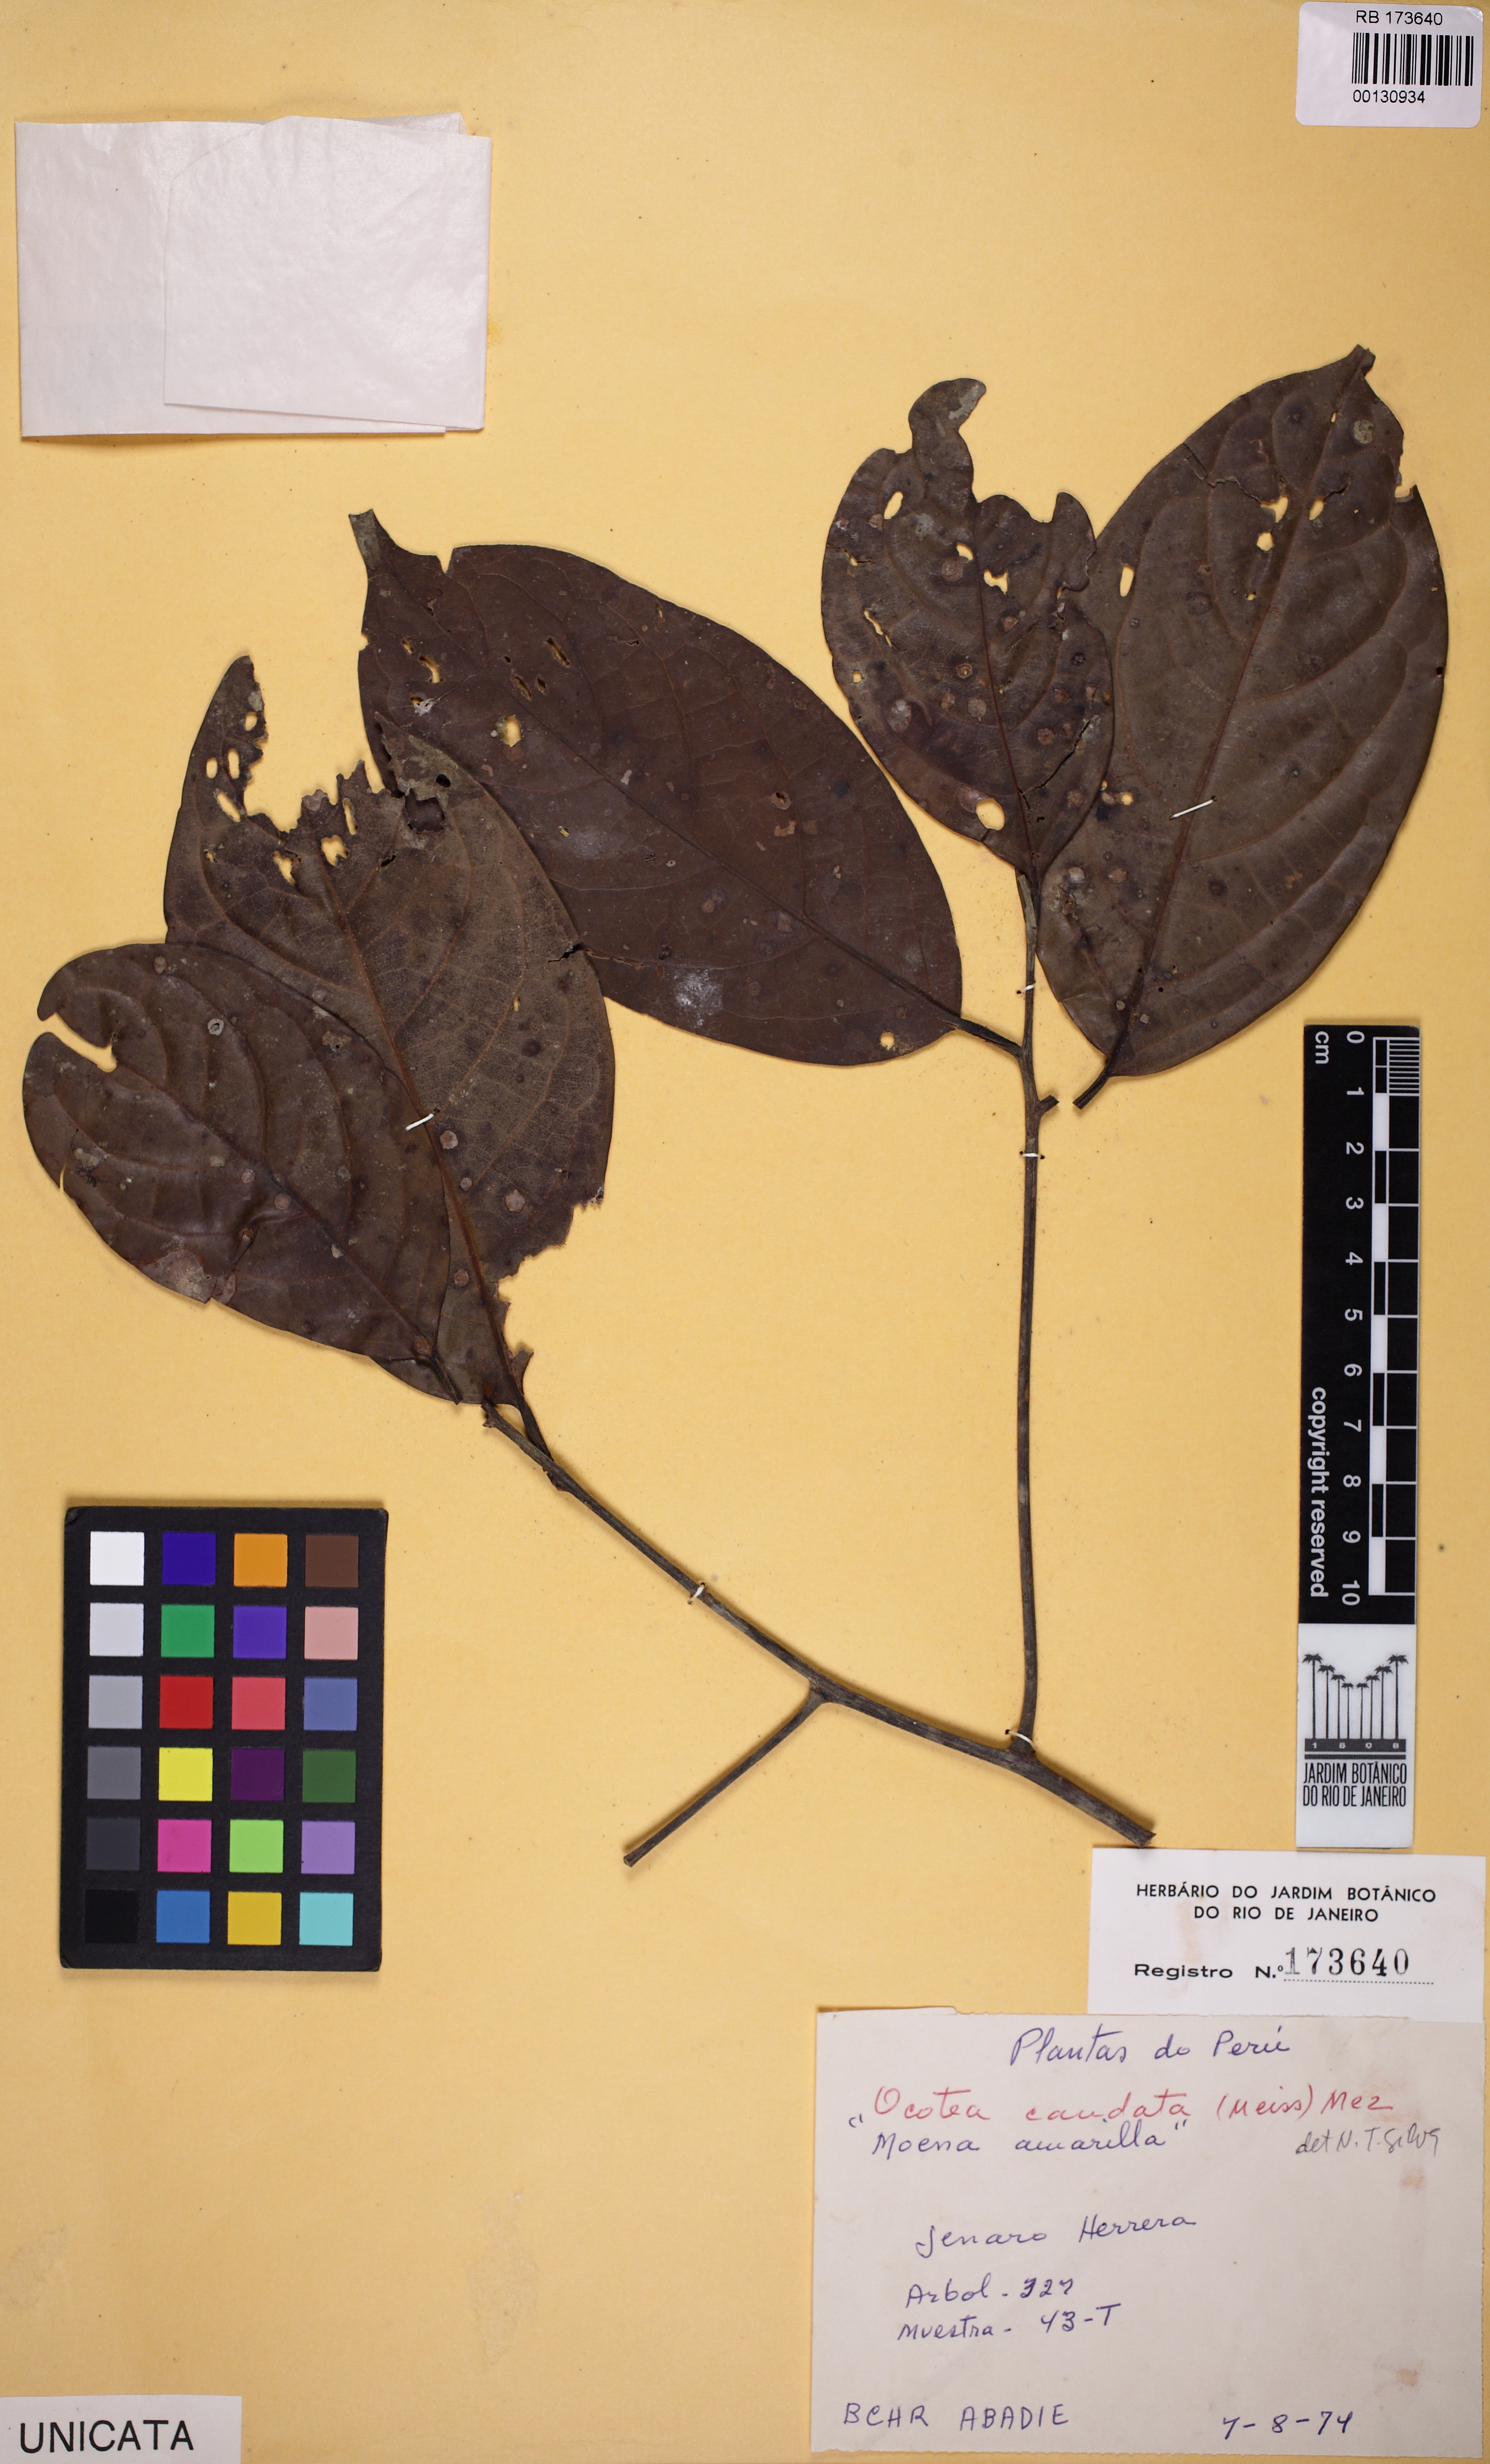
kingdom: Plantae
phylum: Tracheophyta
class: Magnoliopsida
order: Laurales
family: Lauraceae
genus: Ocotea
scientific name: Ocotea leptobotra
